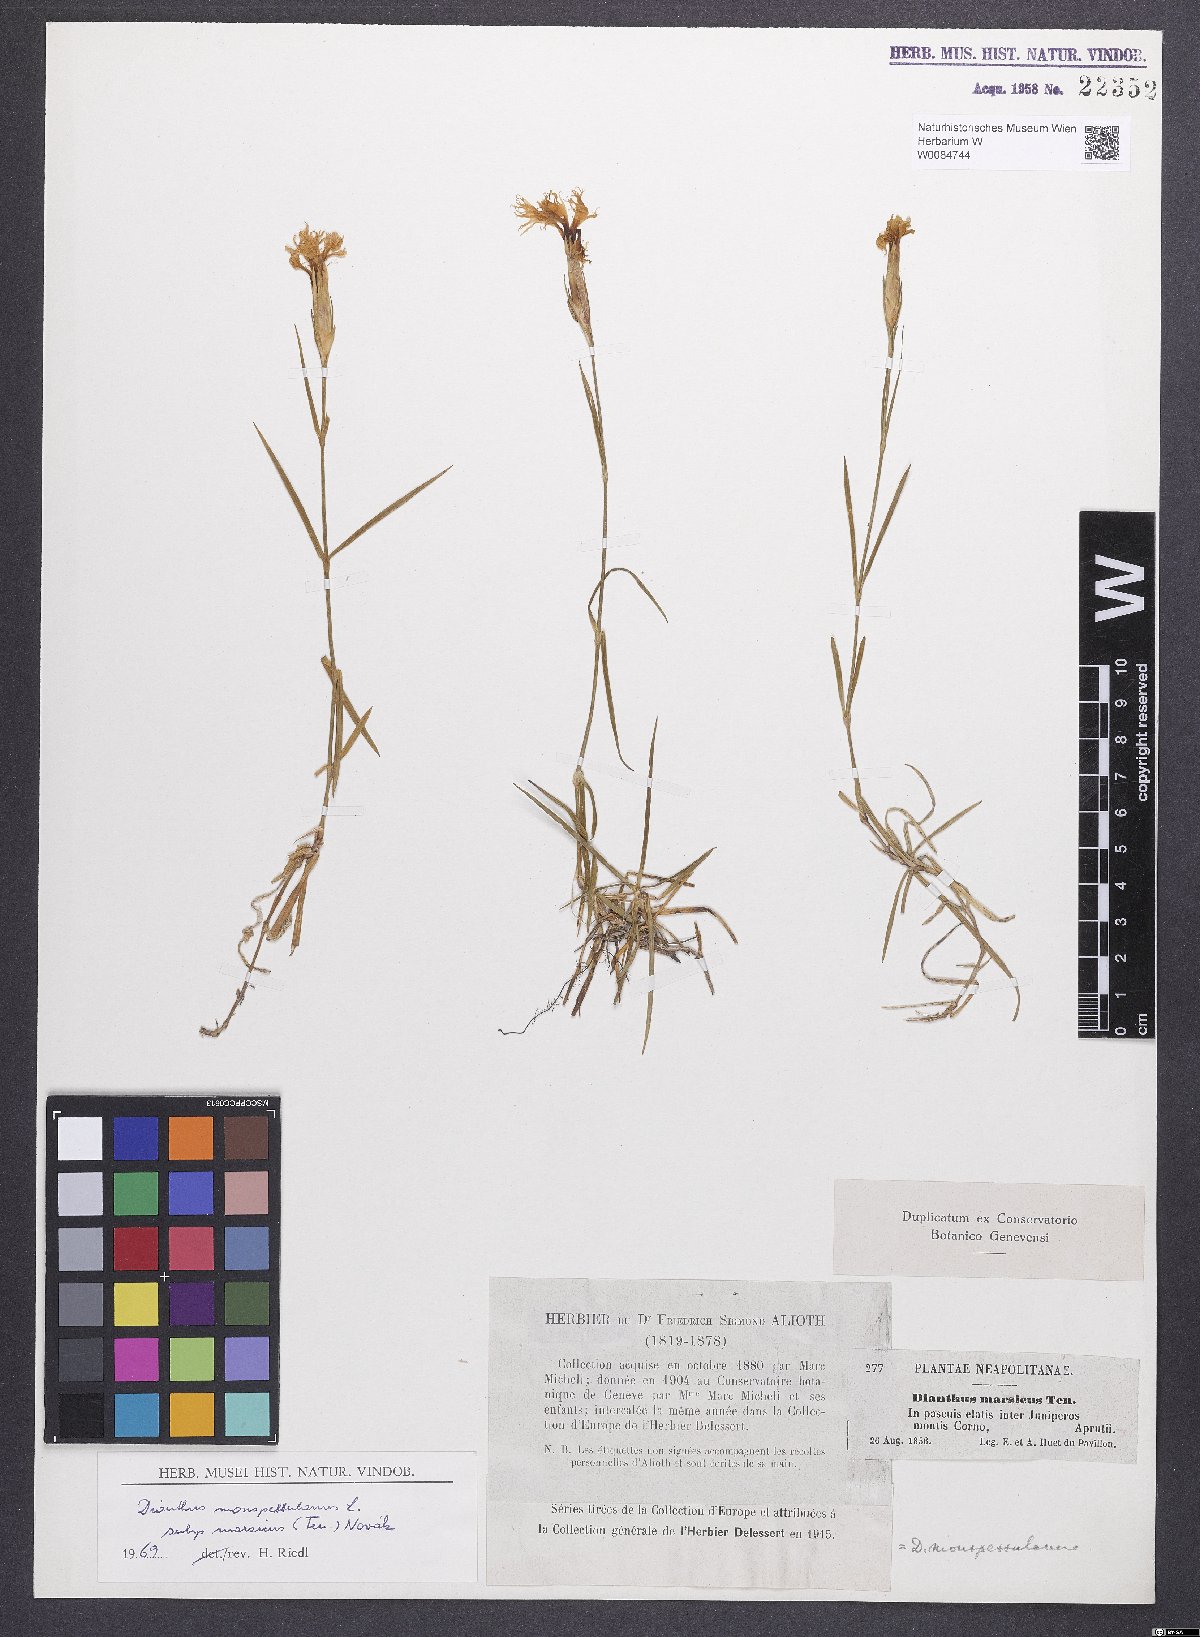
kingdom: Plantae
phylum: Tracheophyta
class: Magnoliopsida
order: Caryophyllales
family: Caryophyllaceae
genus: Dianthus
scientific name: Dianthus hyssopifolius
